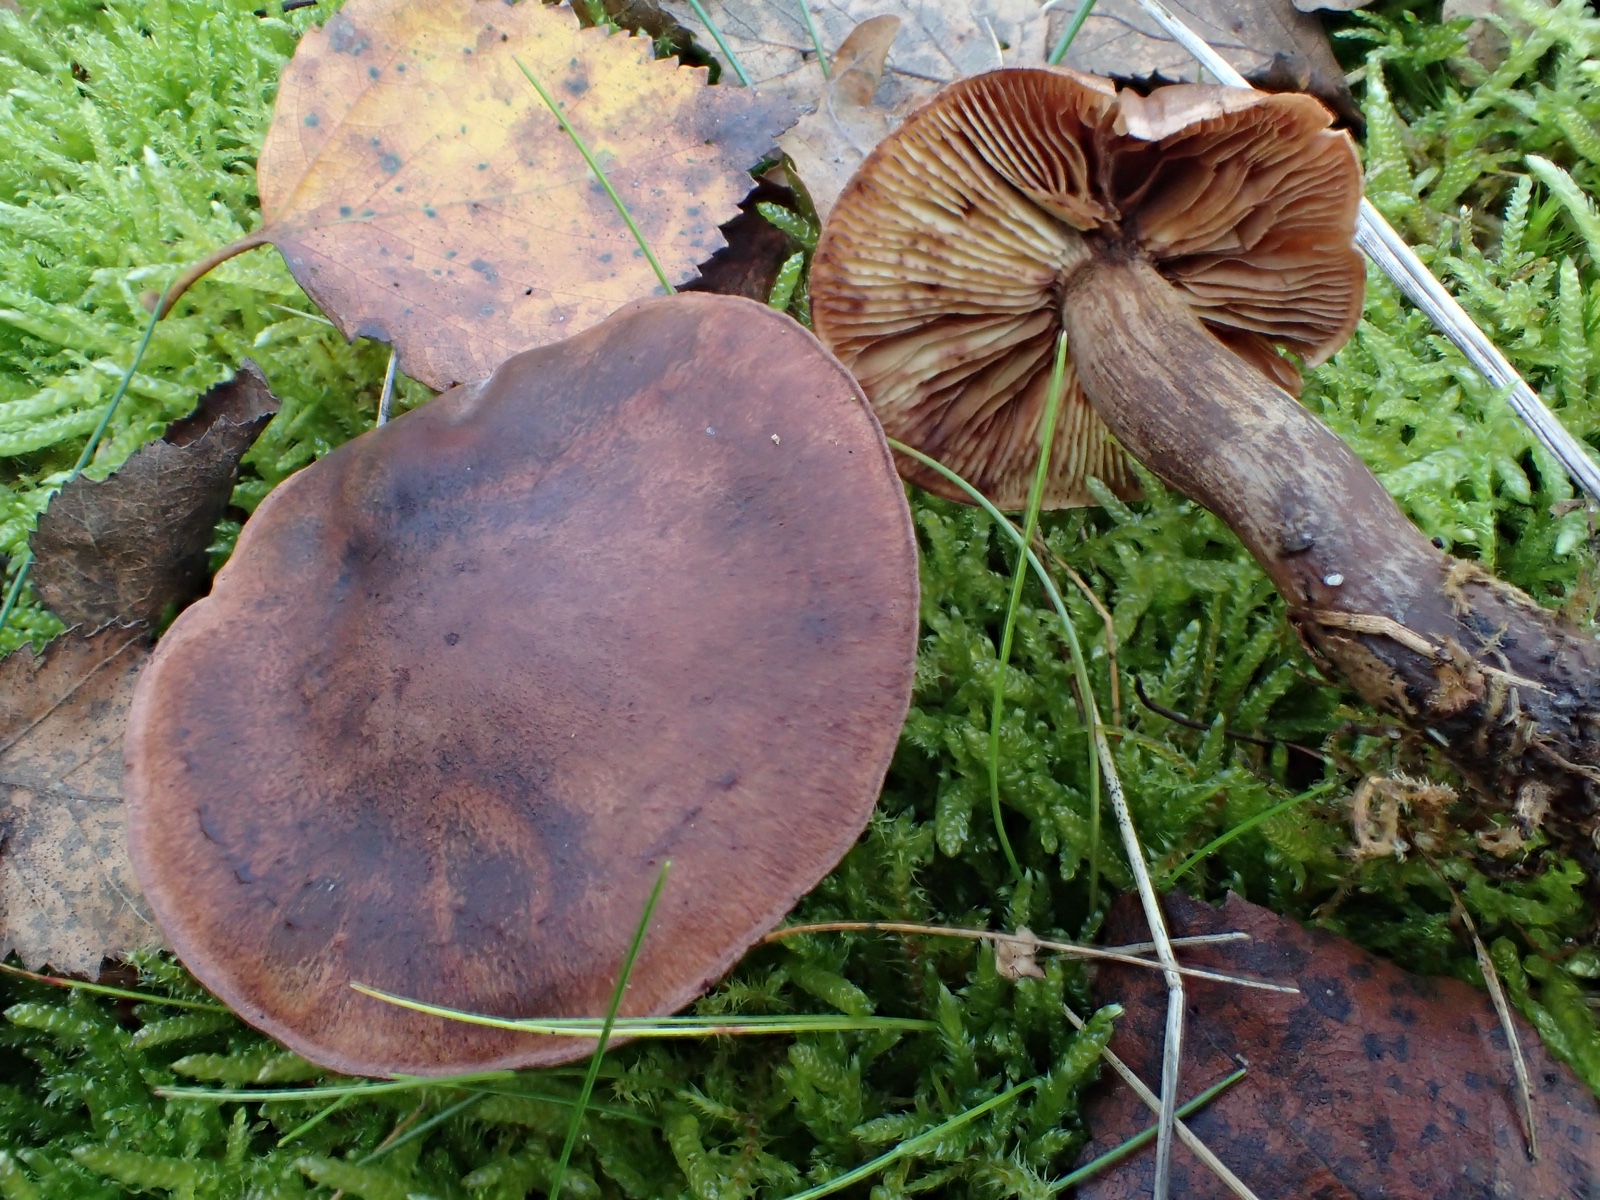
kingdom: Fungi
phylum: Basidiomycota
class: Agaricomycetes
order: Agaricales
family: Tricholomataceae
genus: Tricholoma
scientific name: Tricholoma fulvum
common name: birke-ridderhat
